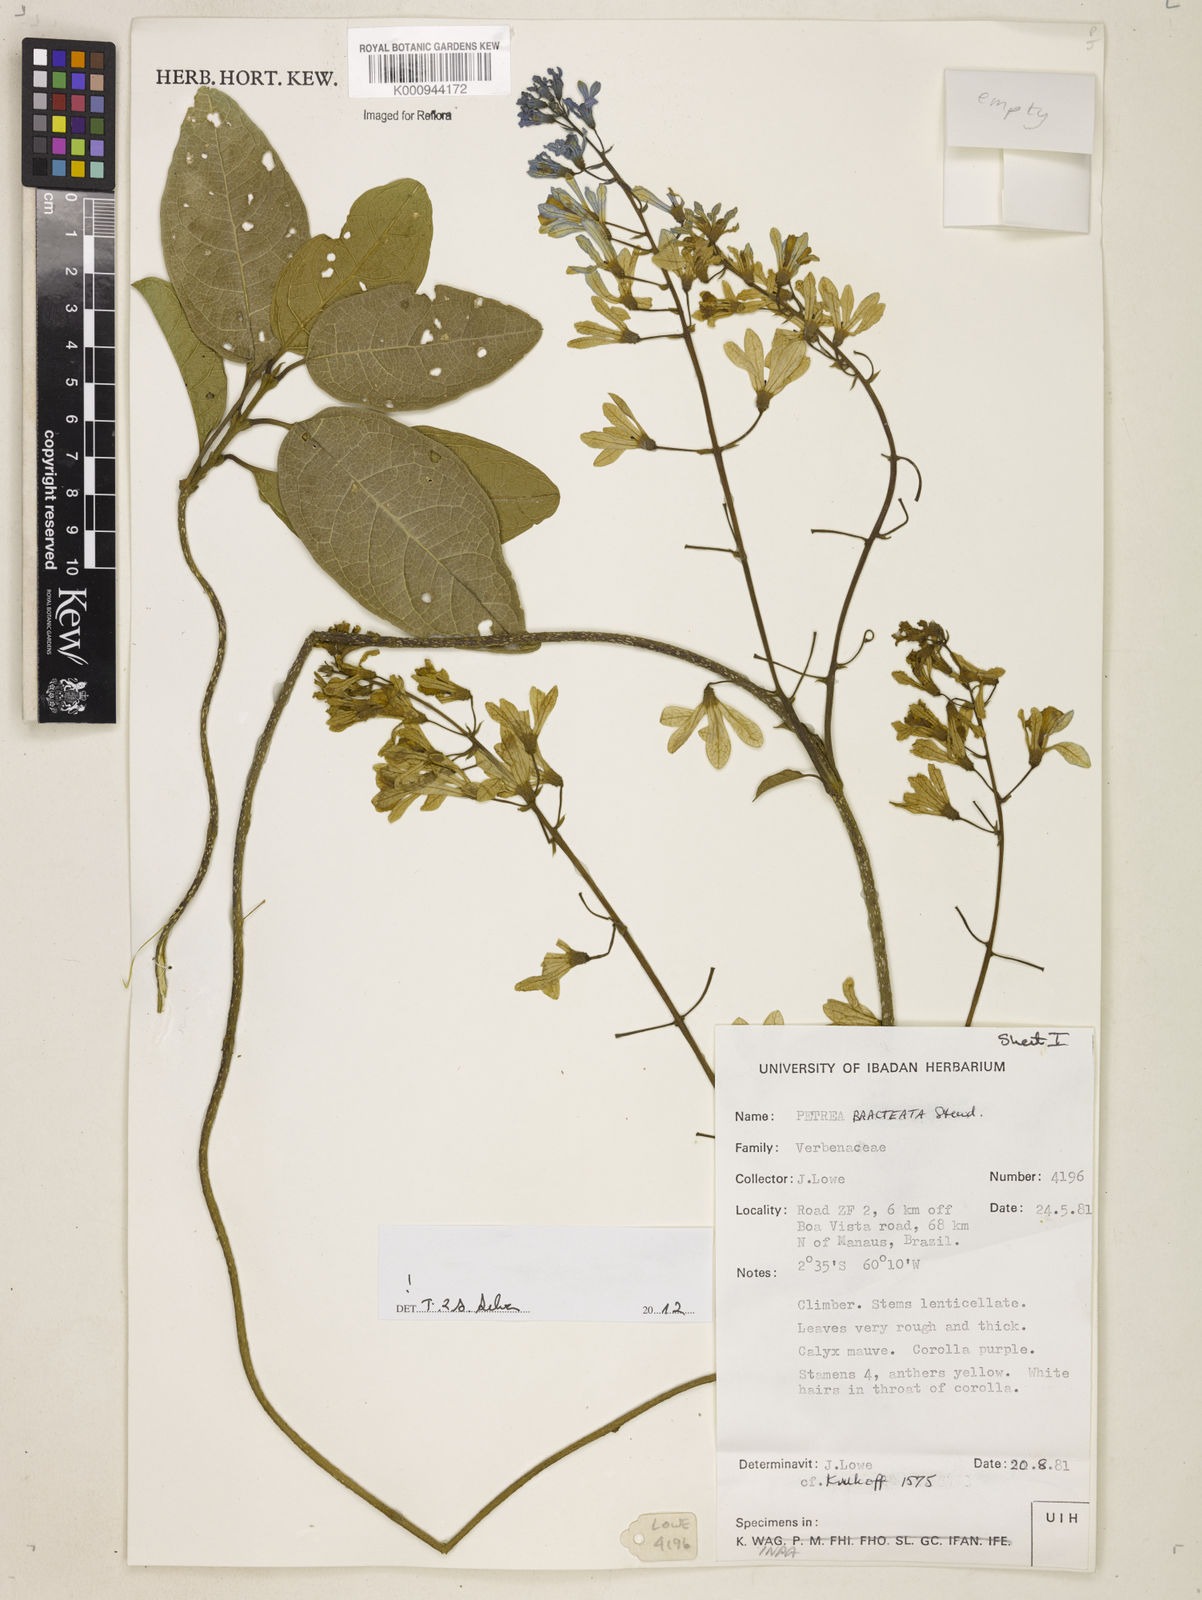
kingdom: Plantae
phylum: Tracheophyta
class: Magnoliopsida
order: Lamiales
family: Verbenaceae
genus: Petrea
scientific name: Petrea bracteata
